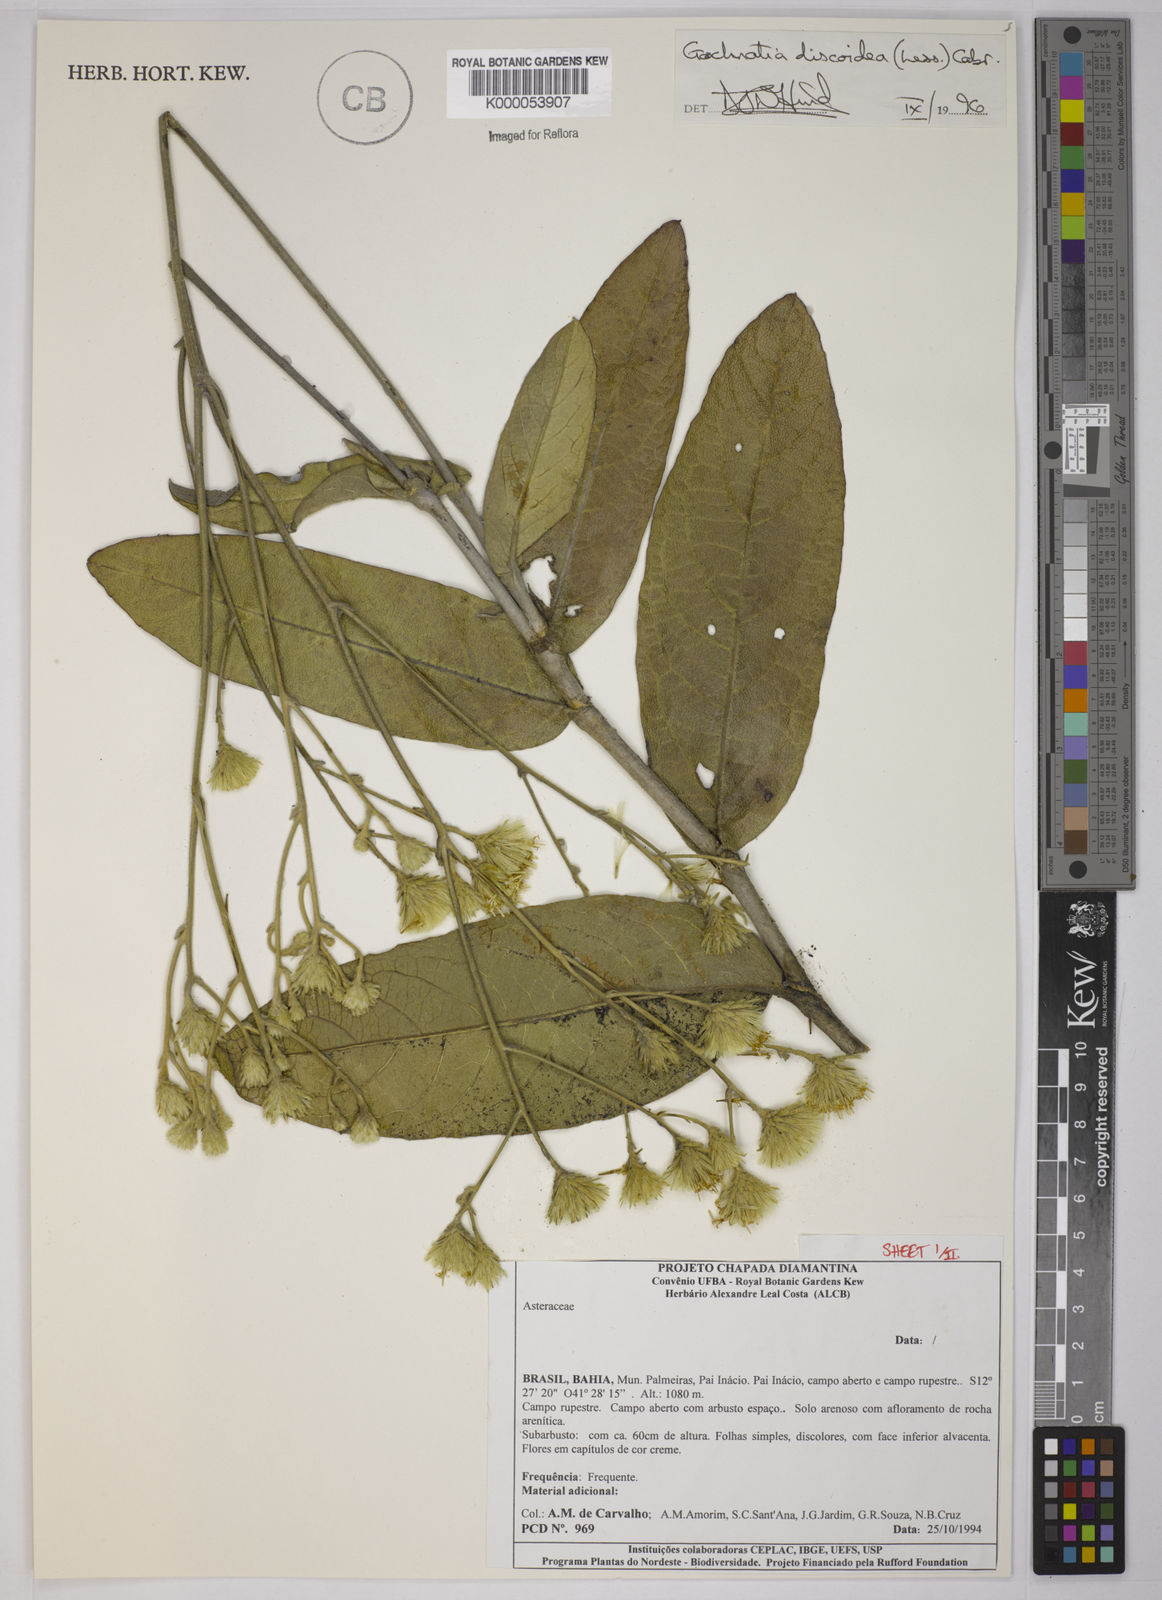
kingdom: Plantae
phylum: Tracheophyta
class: Magnoliopsida
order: Asterales
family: Asteraceae
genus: Richterago
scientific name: Richterago discoidea
